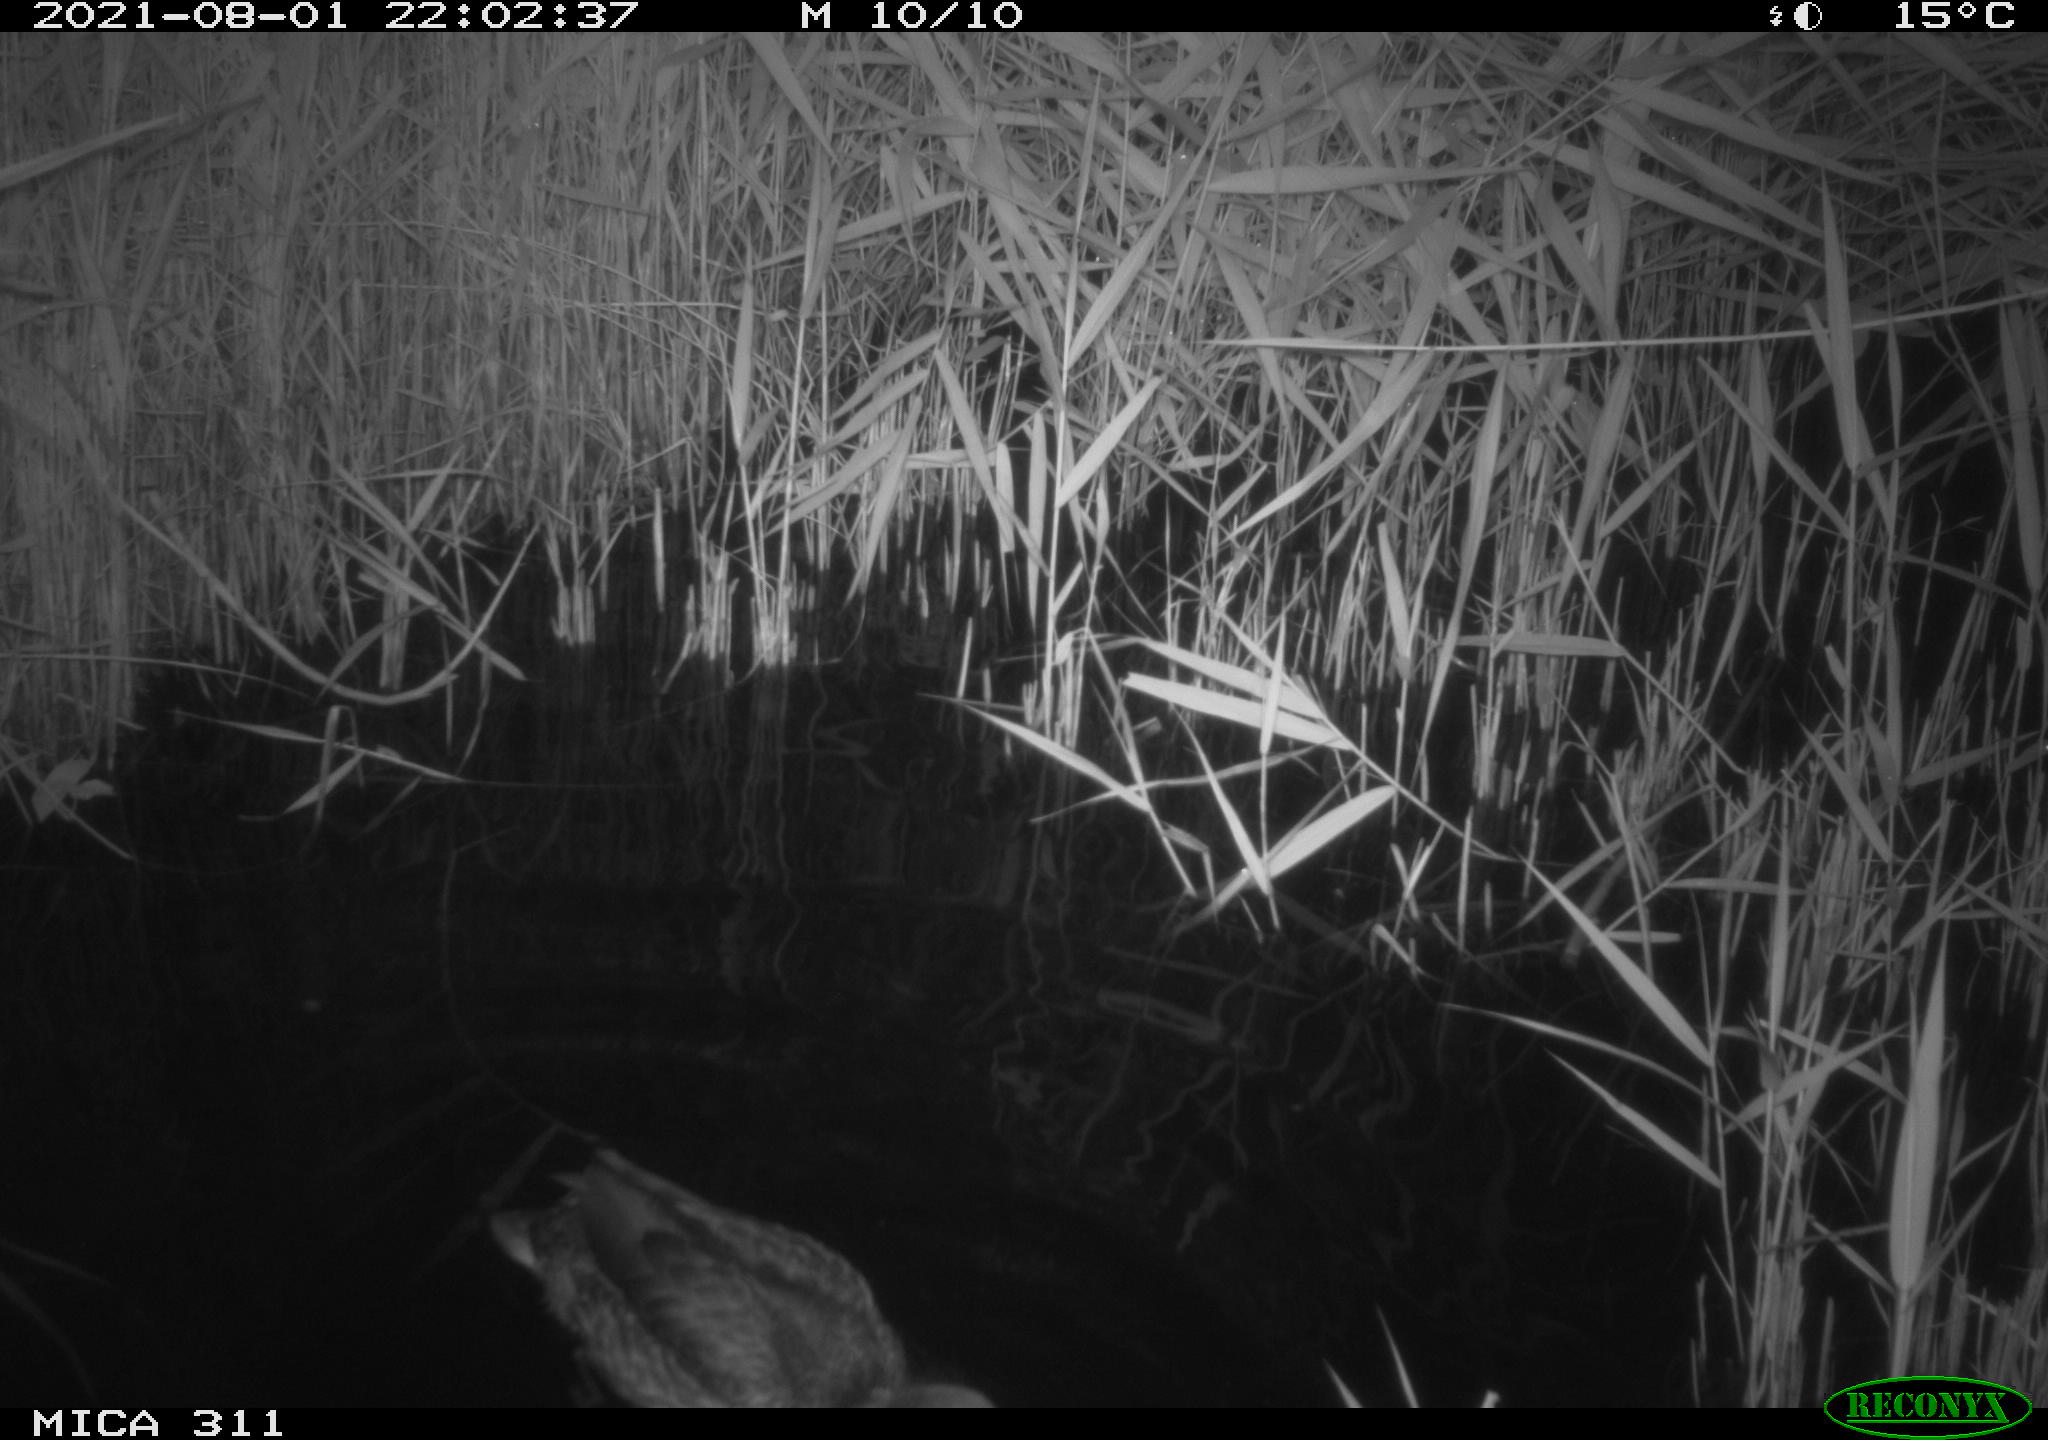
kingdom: Animalia
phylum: Chordata
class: Aves
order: Anseriformes
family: Anatidae
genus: Anas
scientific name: Anas platyrhynchos
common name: Mallard
